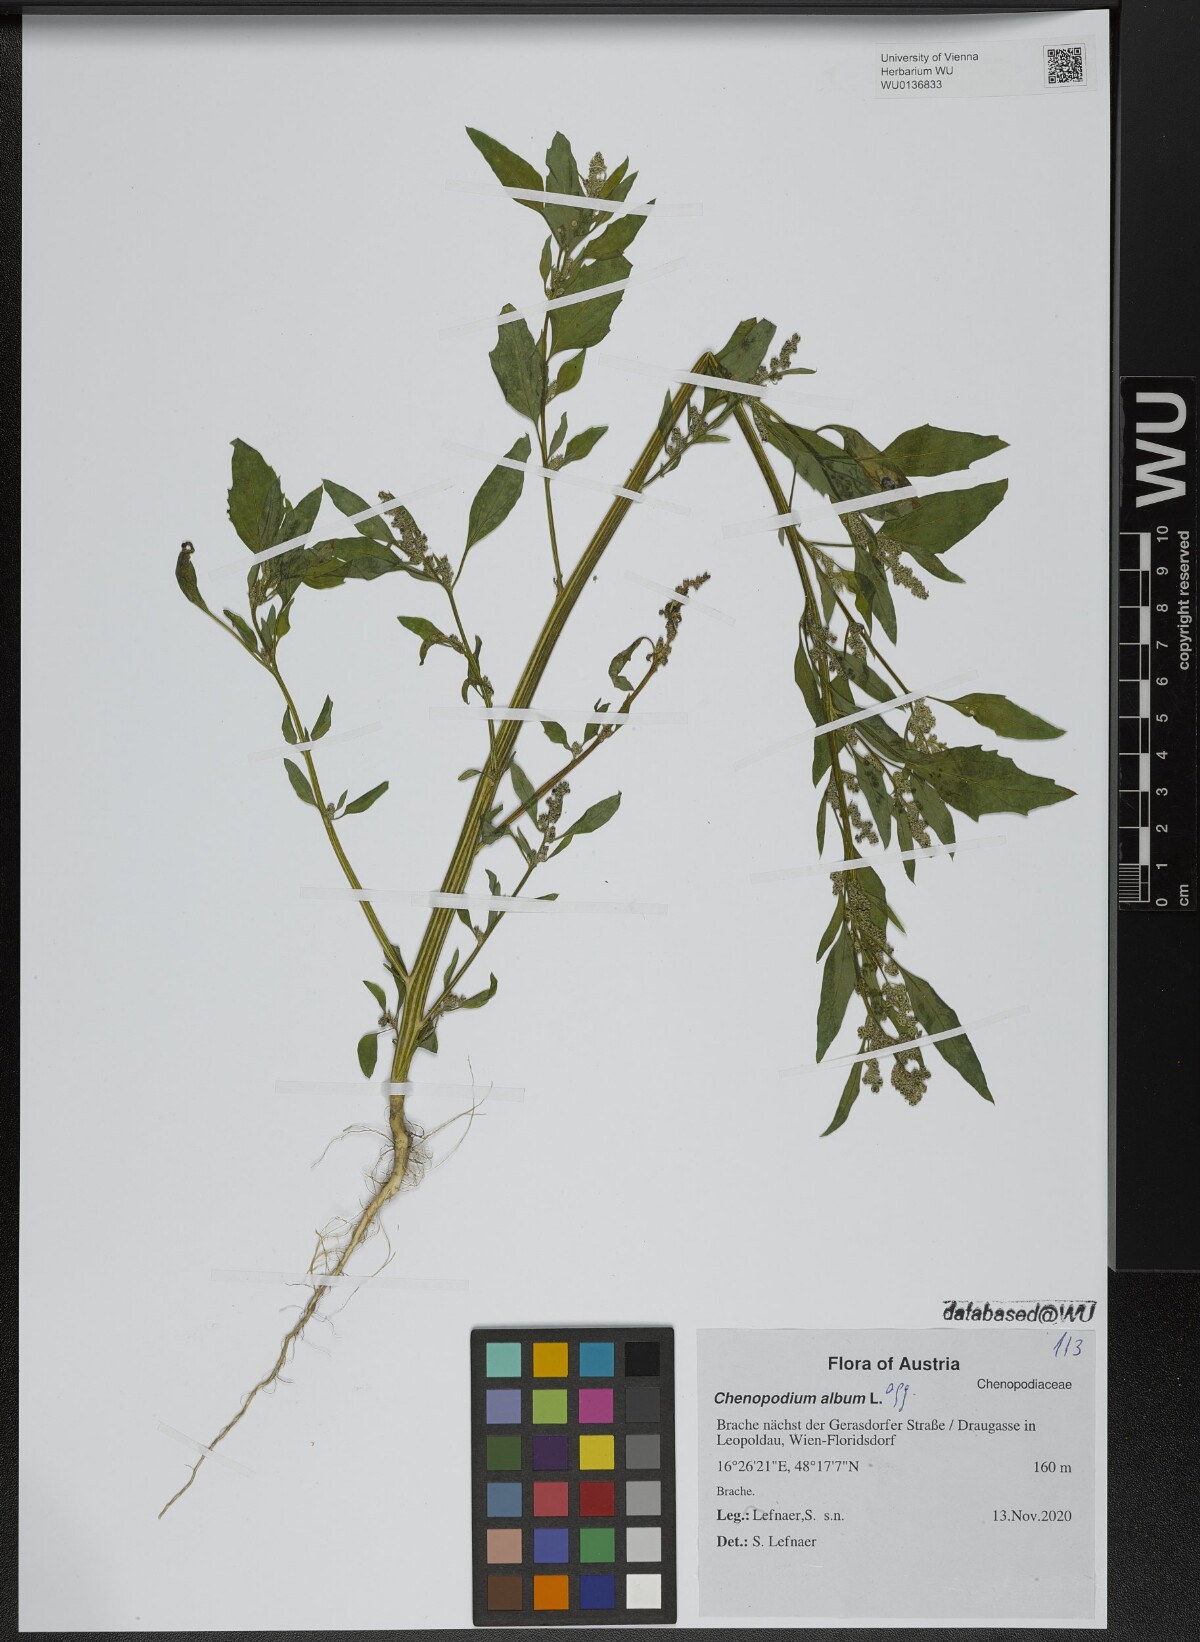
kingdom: Plantae
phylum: Tracheophyta
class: Magnoliopsida
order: Caryophyllales
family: Amaranthaceae
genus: Chenopodium
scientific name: Chenopodium album
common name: Fat-hen
